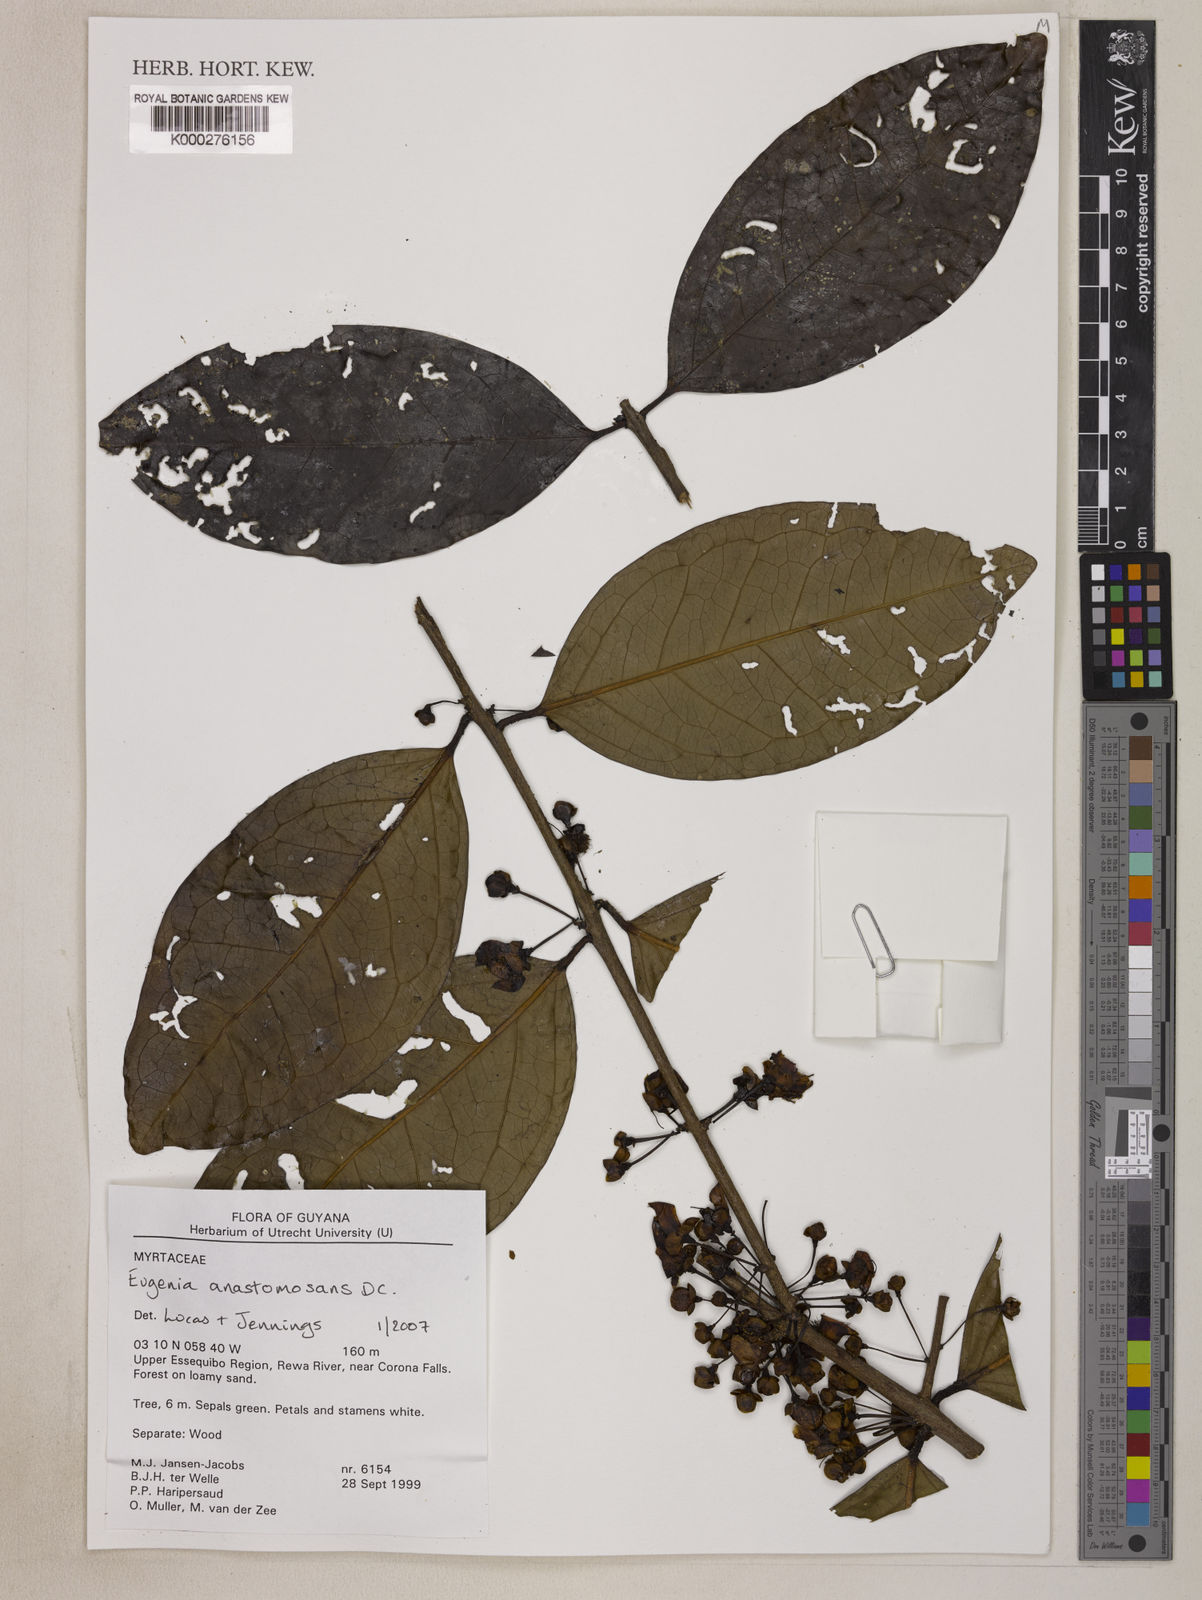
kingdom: Plantae
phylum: Tracheophyta
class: Magnoliopsida
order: Myrtales
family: Myrtaceae
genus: Eugenia
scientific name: Eugenia
